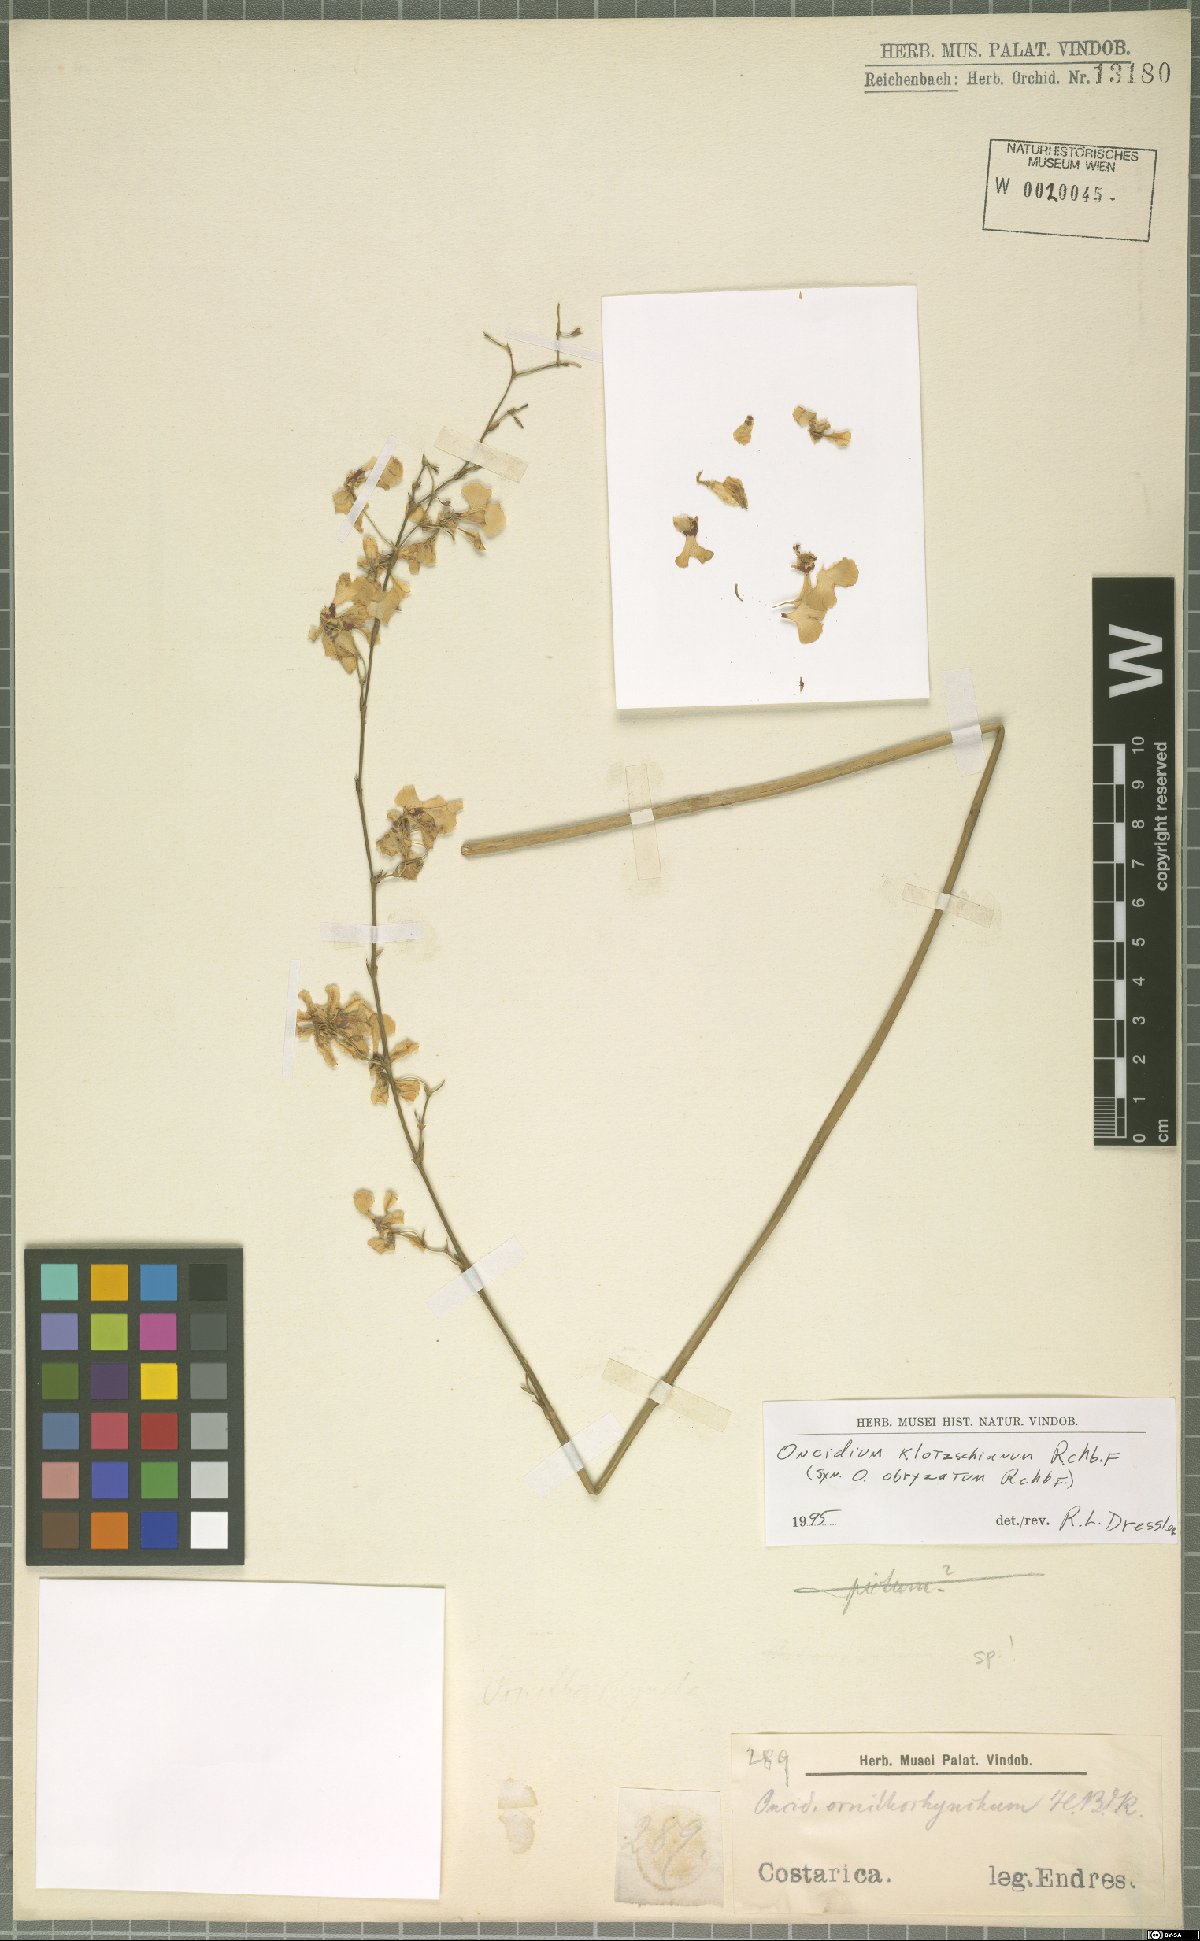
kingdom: Plantae
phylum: Tracheophyta
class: Liliopsida
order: Asparagales
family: Orchidaceae
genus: Oncidium
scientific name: Oncidium nebulosum
